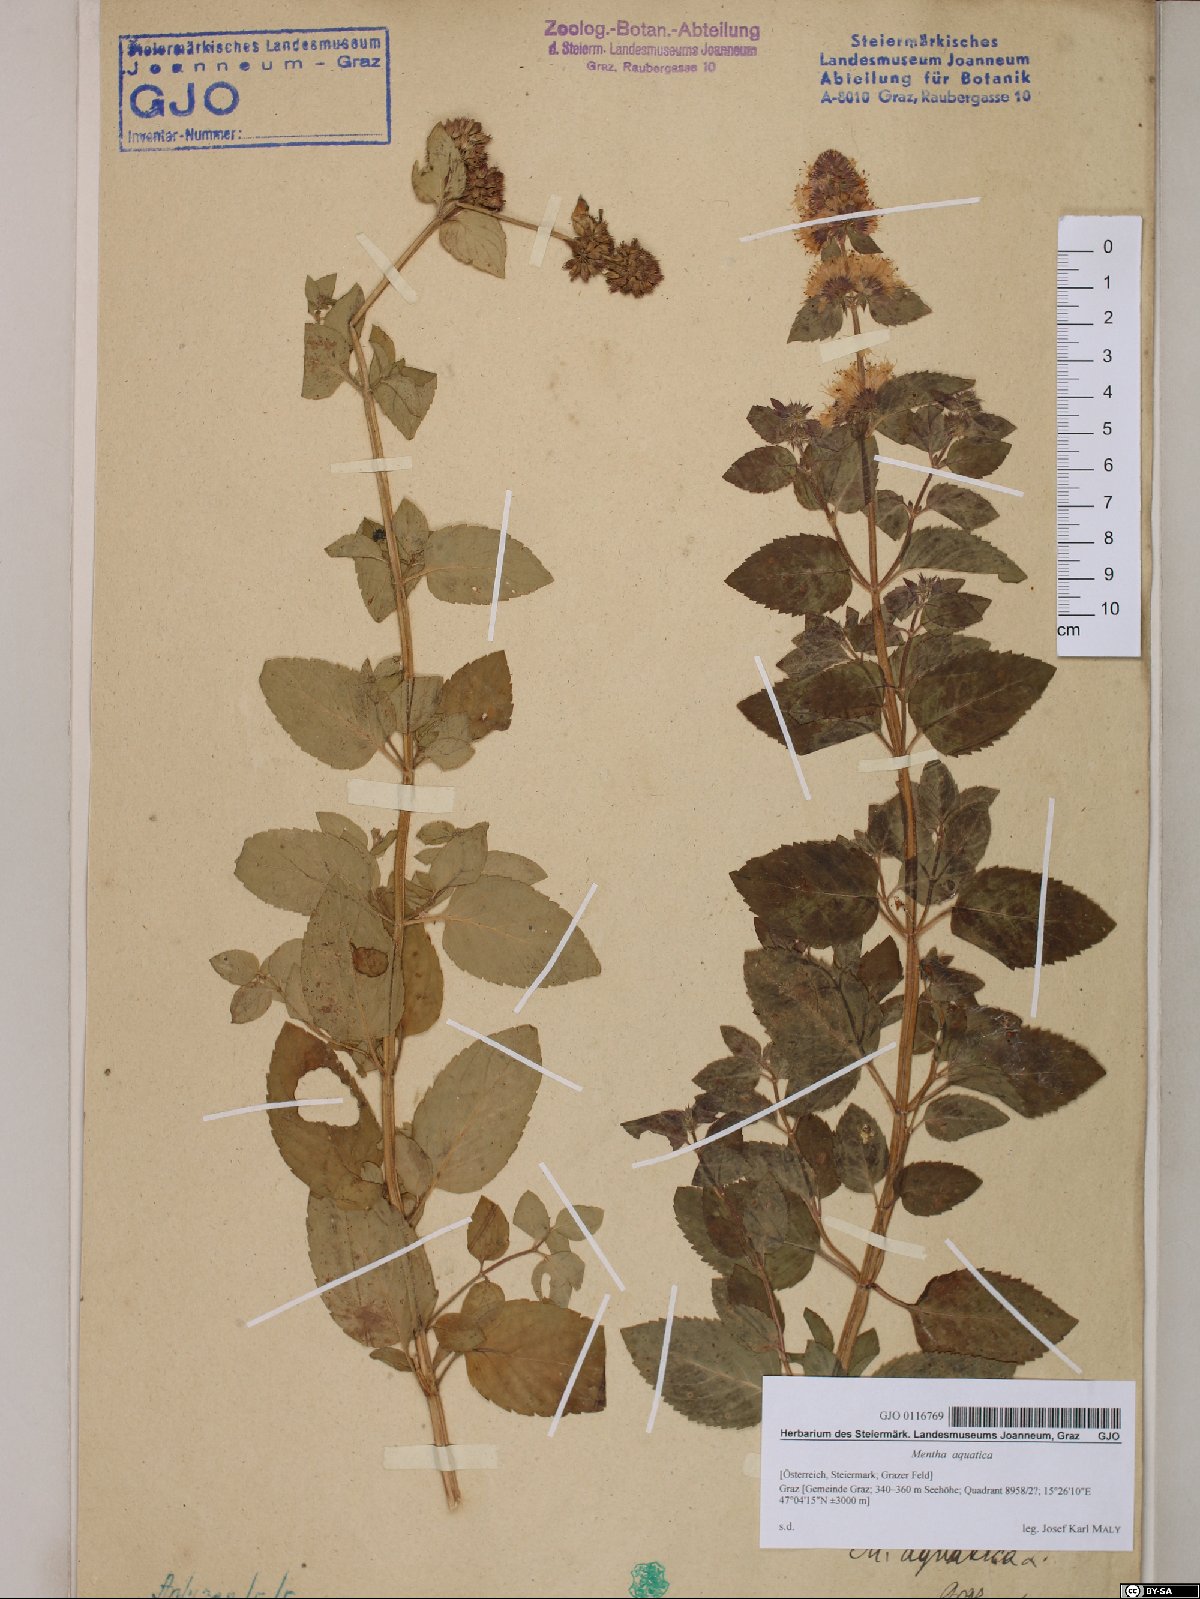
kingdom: Plantae
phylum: Tracheophyta
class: Magnoliopsida
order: Lamiales
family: Lamiaceae
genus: Mentha
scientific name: Mentha aquatica
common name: Water mint
